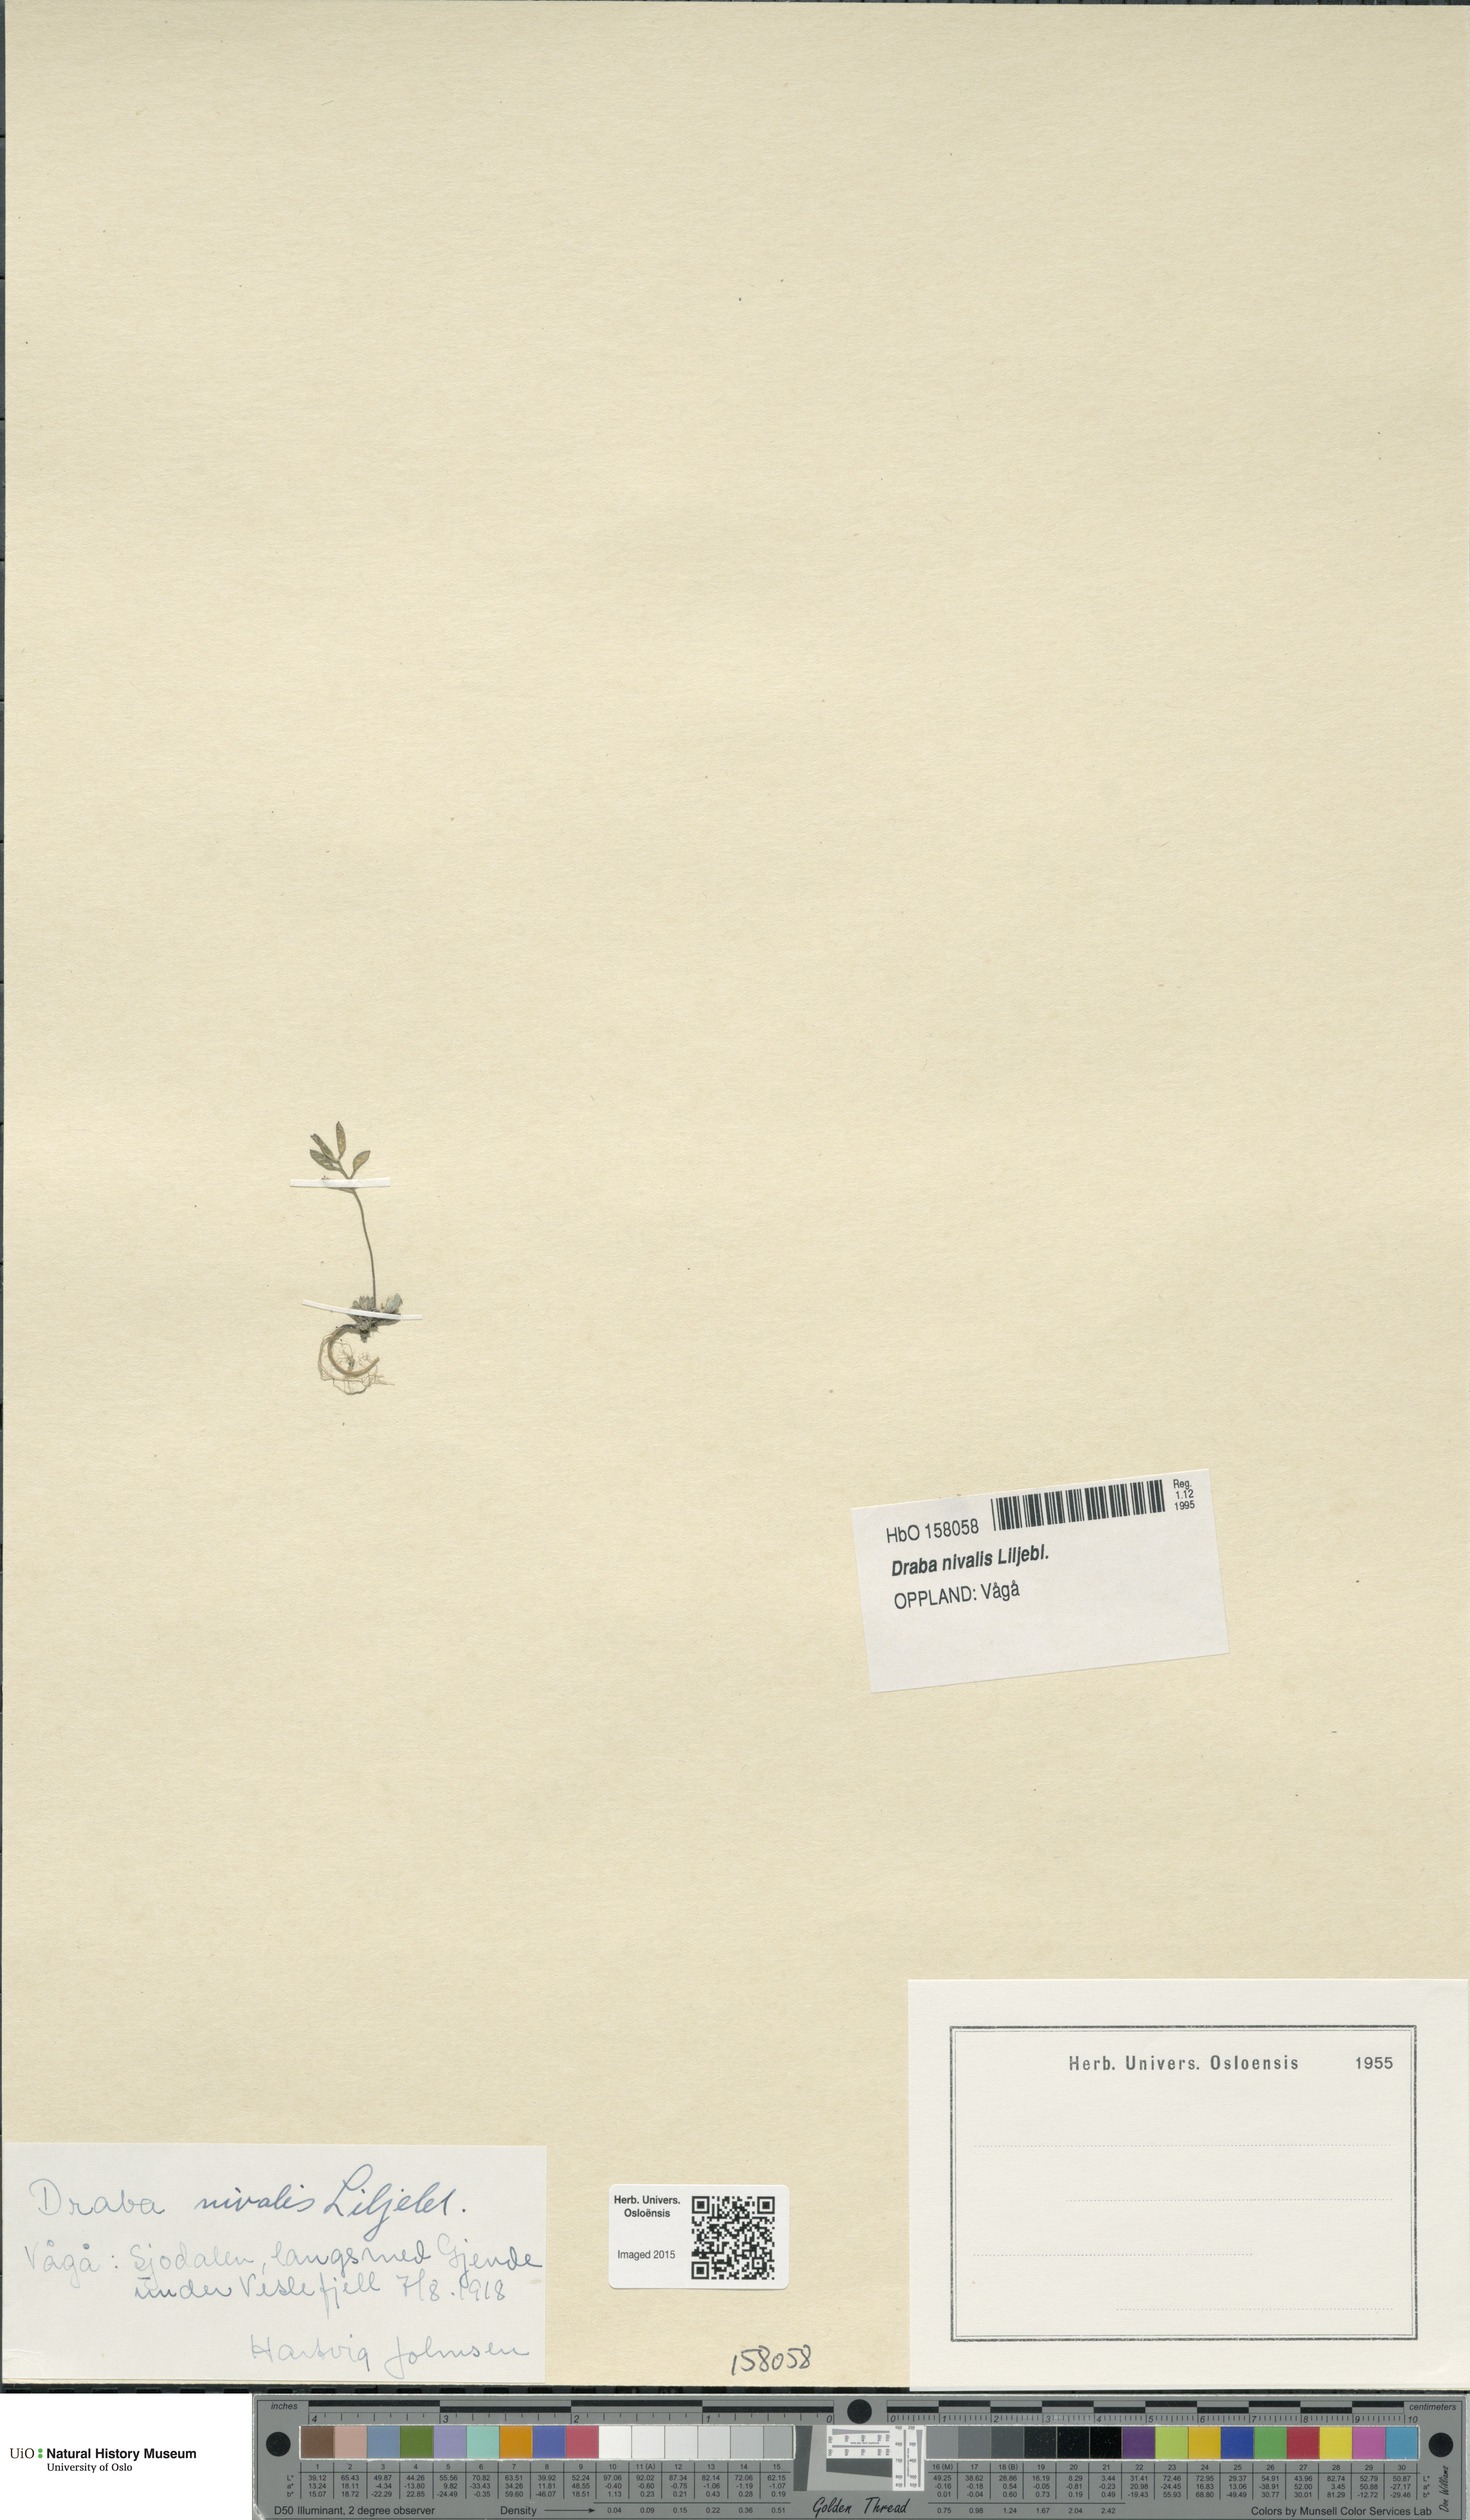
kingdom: Plantae
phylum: Tracheophyta
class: Magnoliopsida
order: Brassicales
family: Brassicaceae
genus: Draba
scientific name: Draba nivalis
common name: Snow draba
